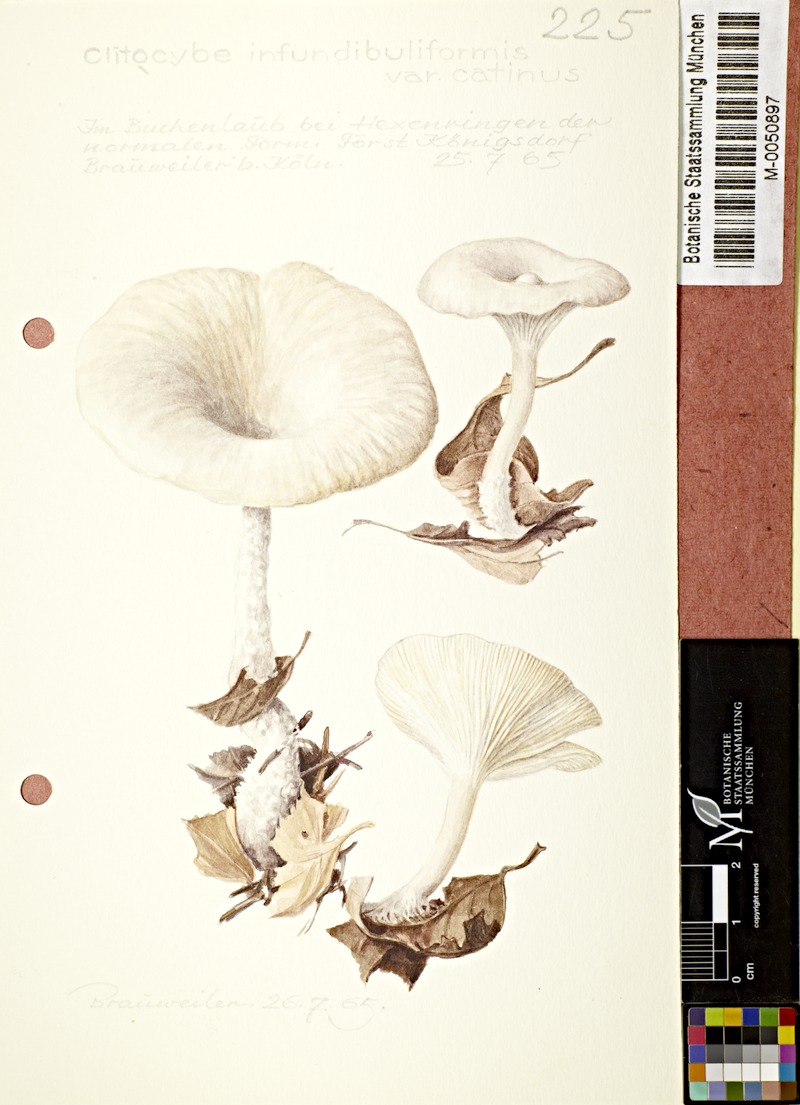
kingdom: Fungi
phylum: Basidiomycota
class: Agaricomycetes
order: Agaricales
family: Tricholomataceae
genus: Clitocybe
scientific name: Clitocybe catinus
